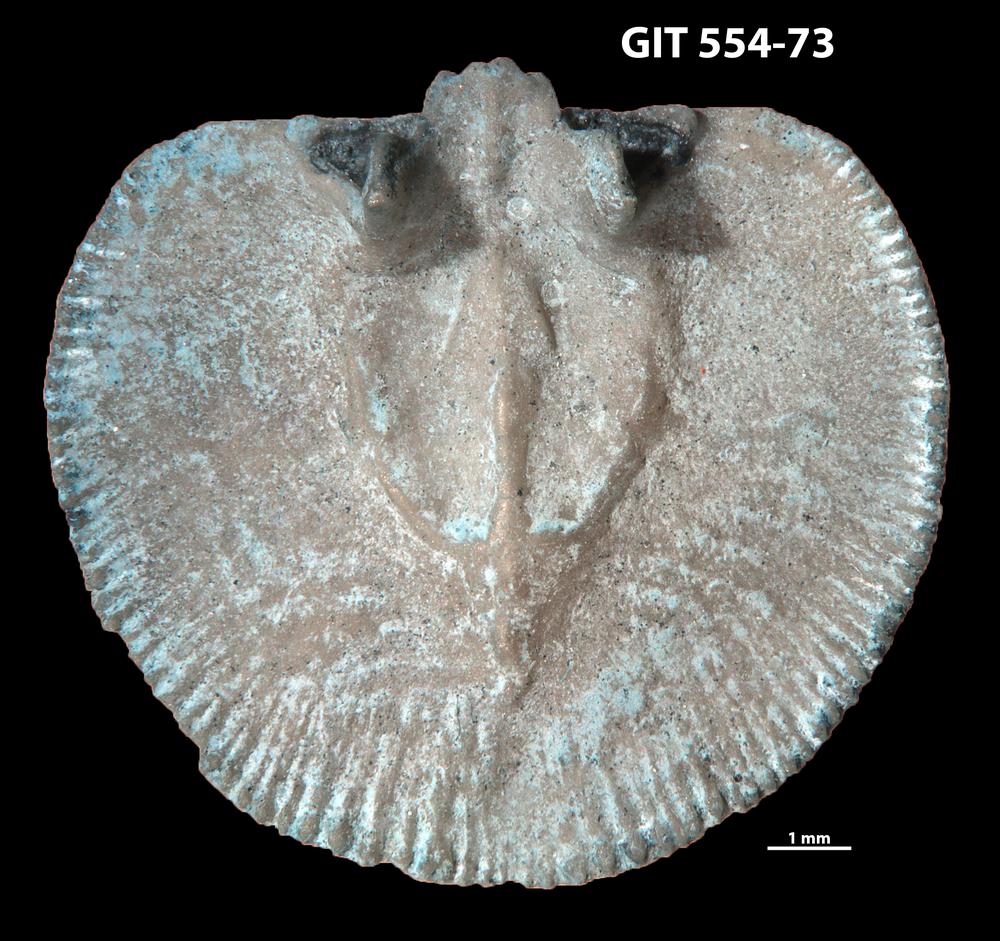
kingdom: Animalia
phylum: Brachiopoda
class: Rhynchonellata
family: Dalmanellidae
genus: Visbyella
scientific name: Visbyella Orthis visbyensis
